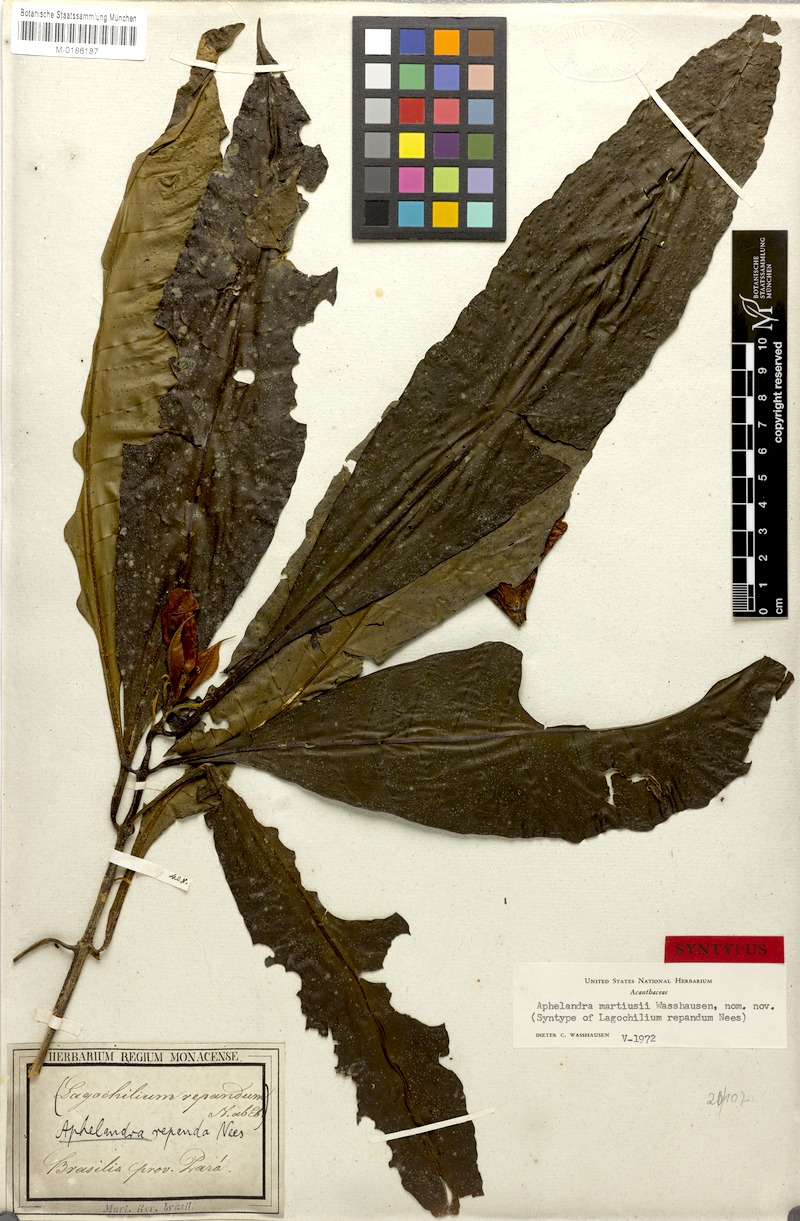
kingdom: Plantae
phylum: Tracheophyta
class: Magnoliopsida
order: Lamiales
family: Acanthaceae
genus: Aphelandra
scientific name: Aphelandra martiusii
